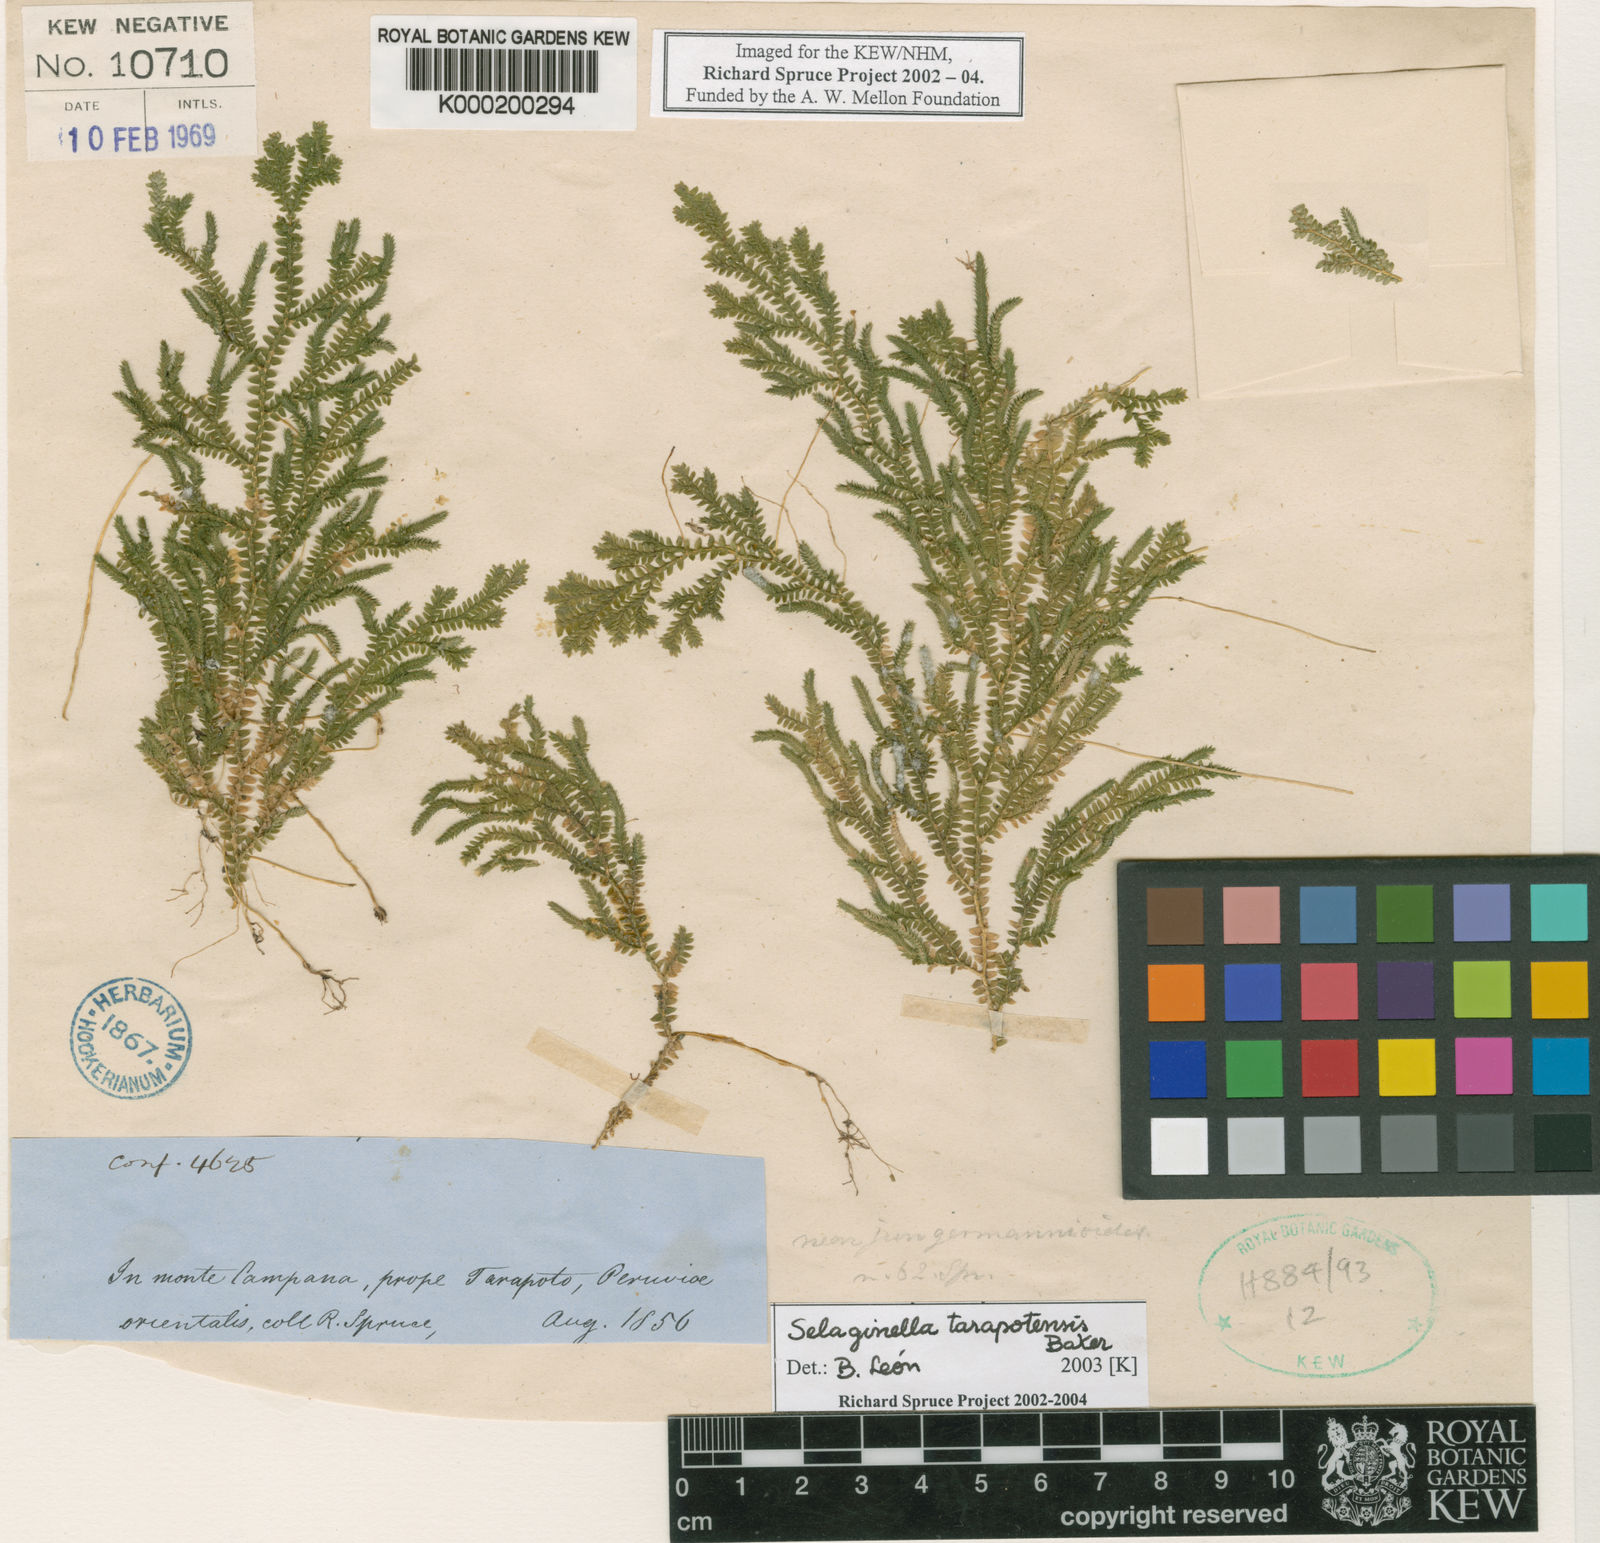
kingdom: Plantae
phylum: Tracheophyta
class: Lycopodiopsida
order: Selaginellales
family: Selaginellaceae
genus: Selaginella
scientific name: Selaginella flexuosa
